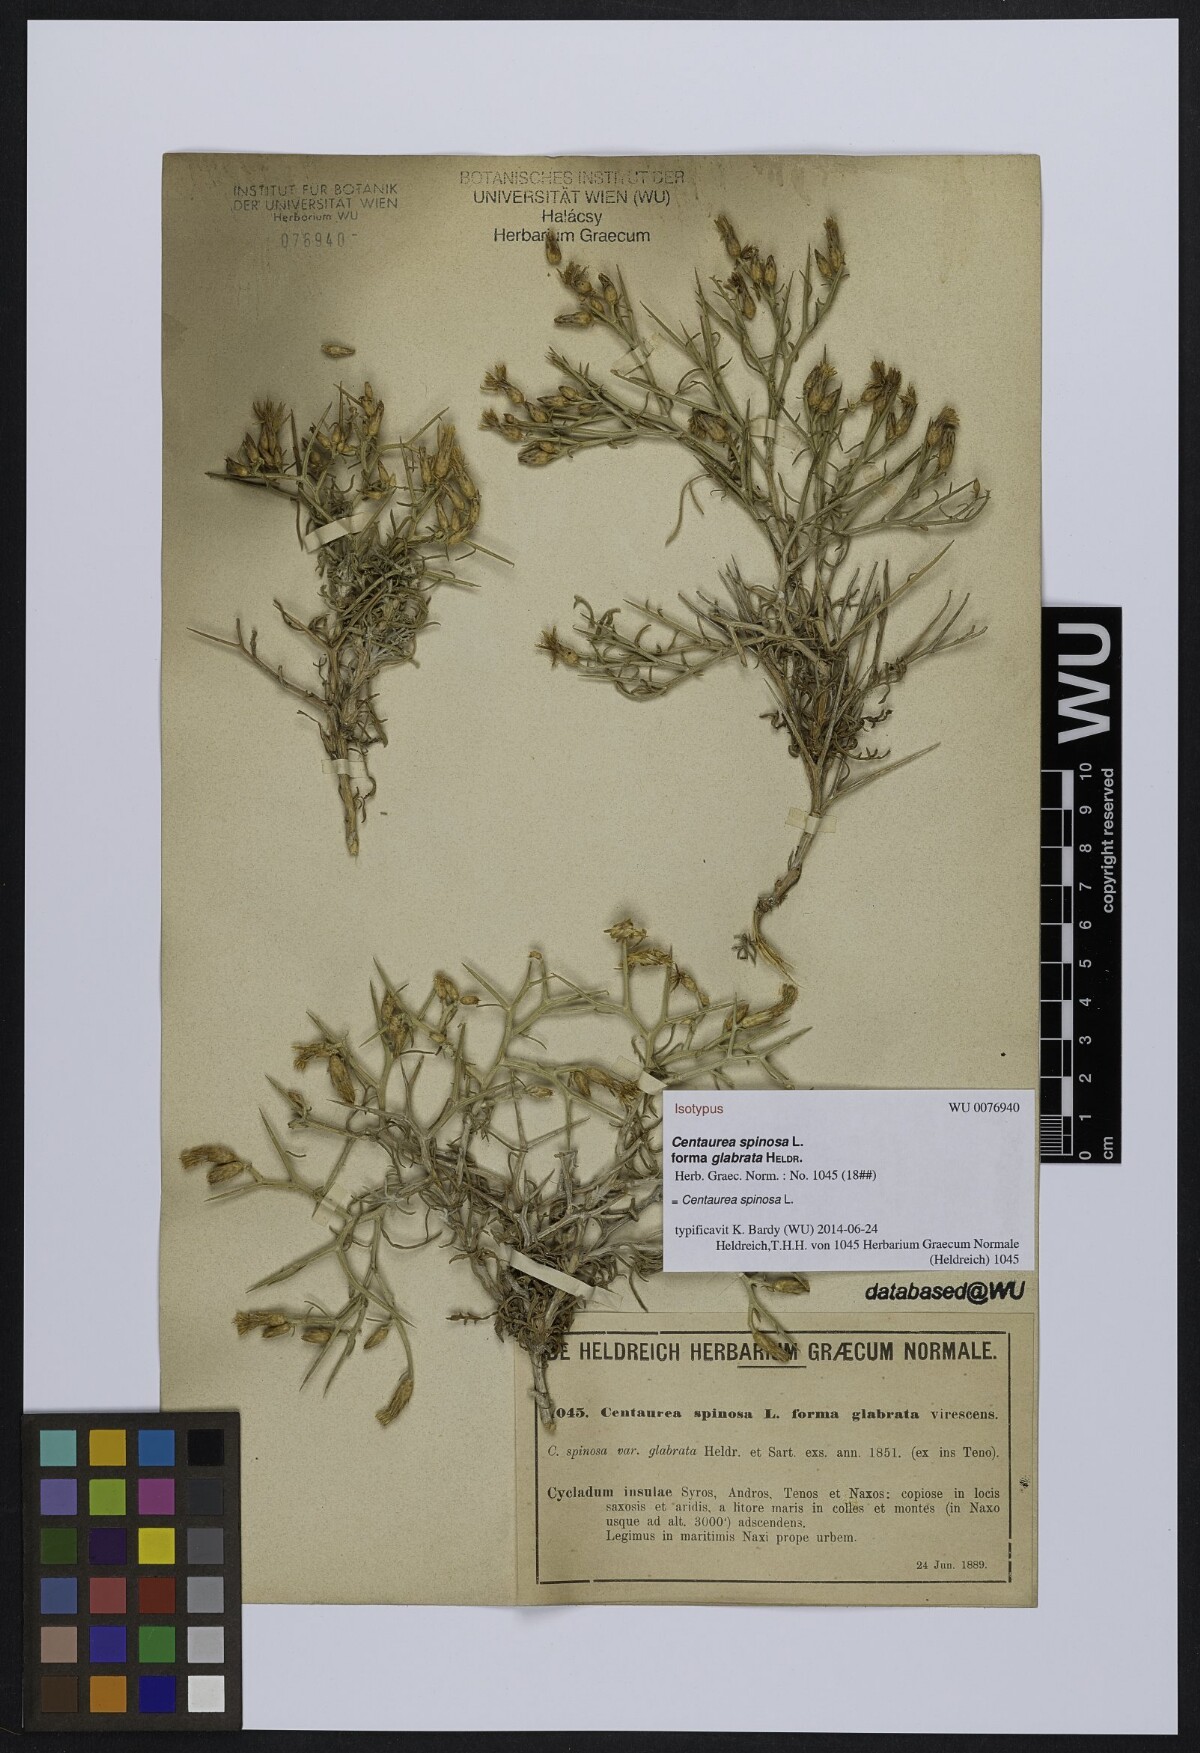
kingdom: Plantae
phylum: Tracheophyta
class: Magnoliopsida
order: Asterales
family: Asteraceae
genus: Centaurea
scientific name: Centaurea spinosa
